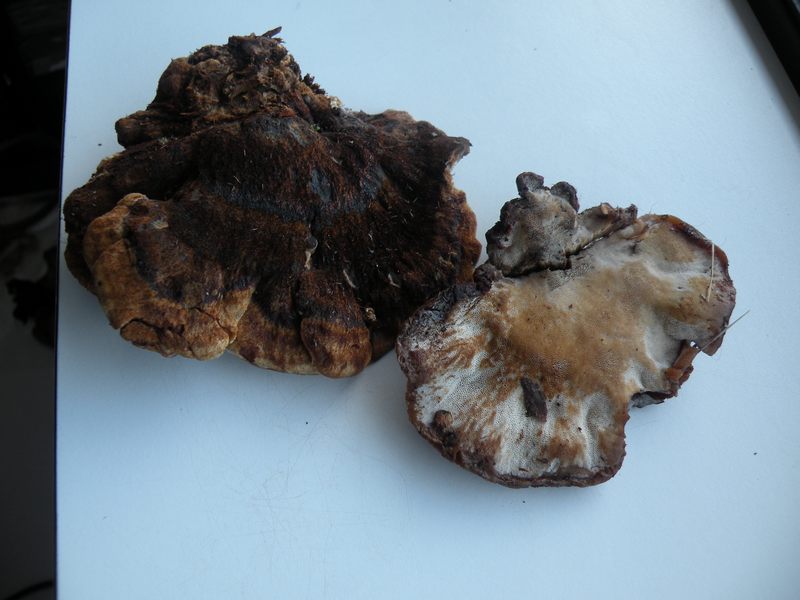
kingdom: Fungi
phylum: Basidiomycota
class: Agaricomycetes
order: Polyporales
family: Ischnodermataceae
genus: Ischnoderma
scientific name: Ischnoderma benzoinum
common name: gran-tjæreporesvamp
